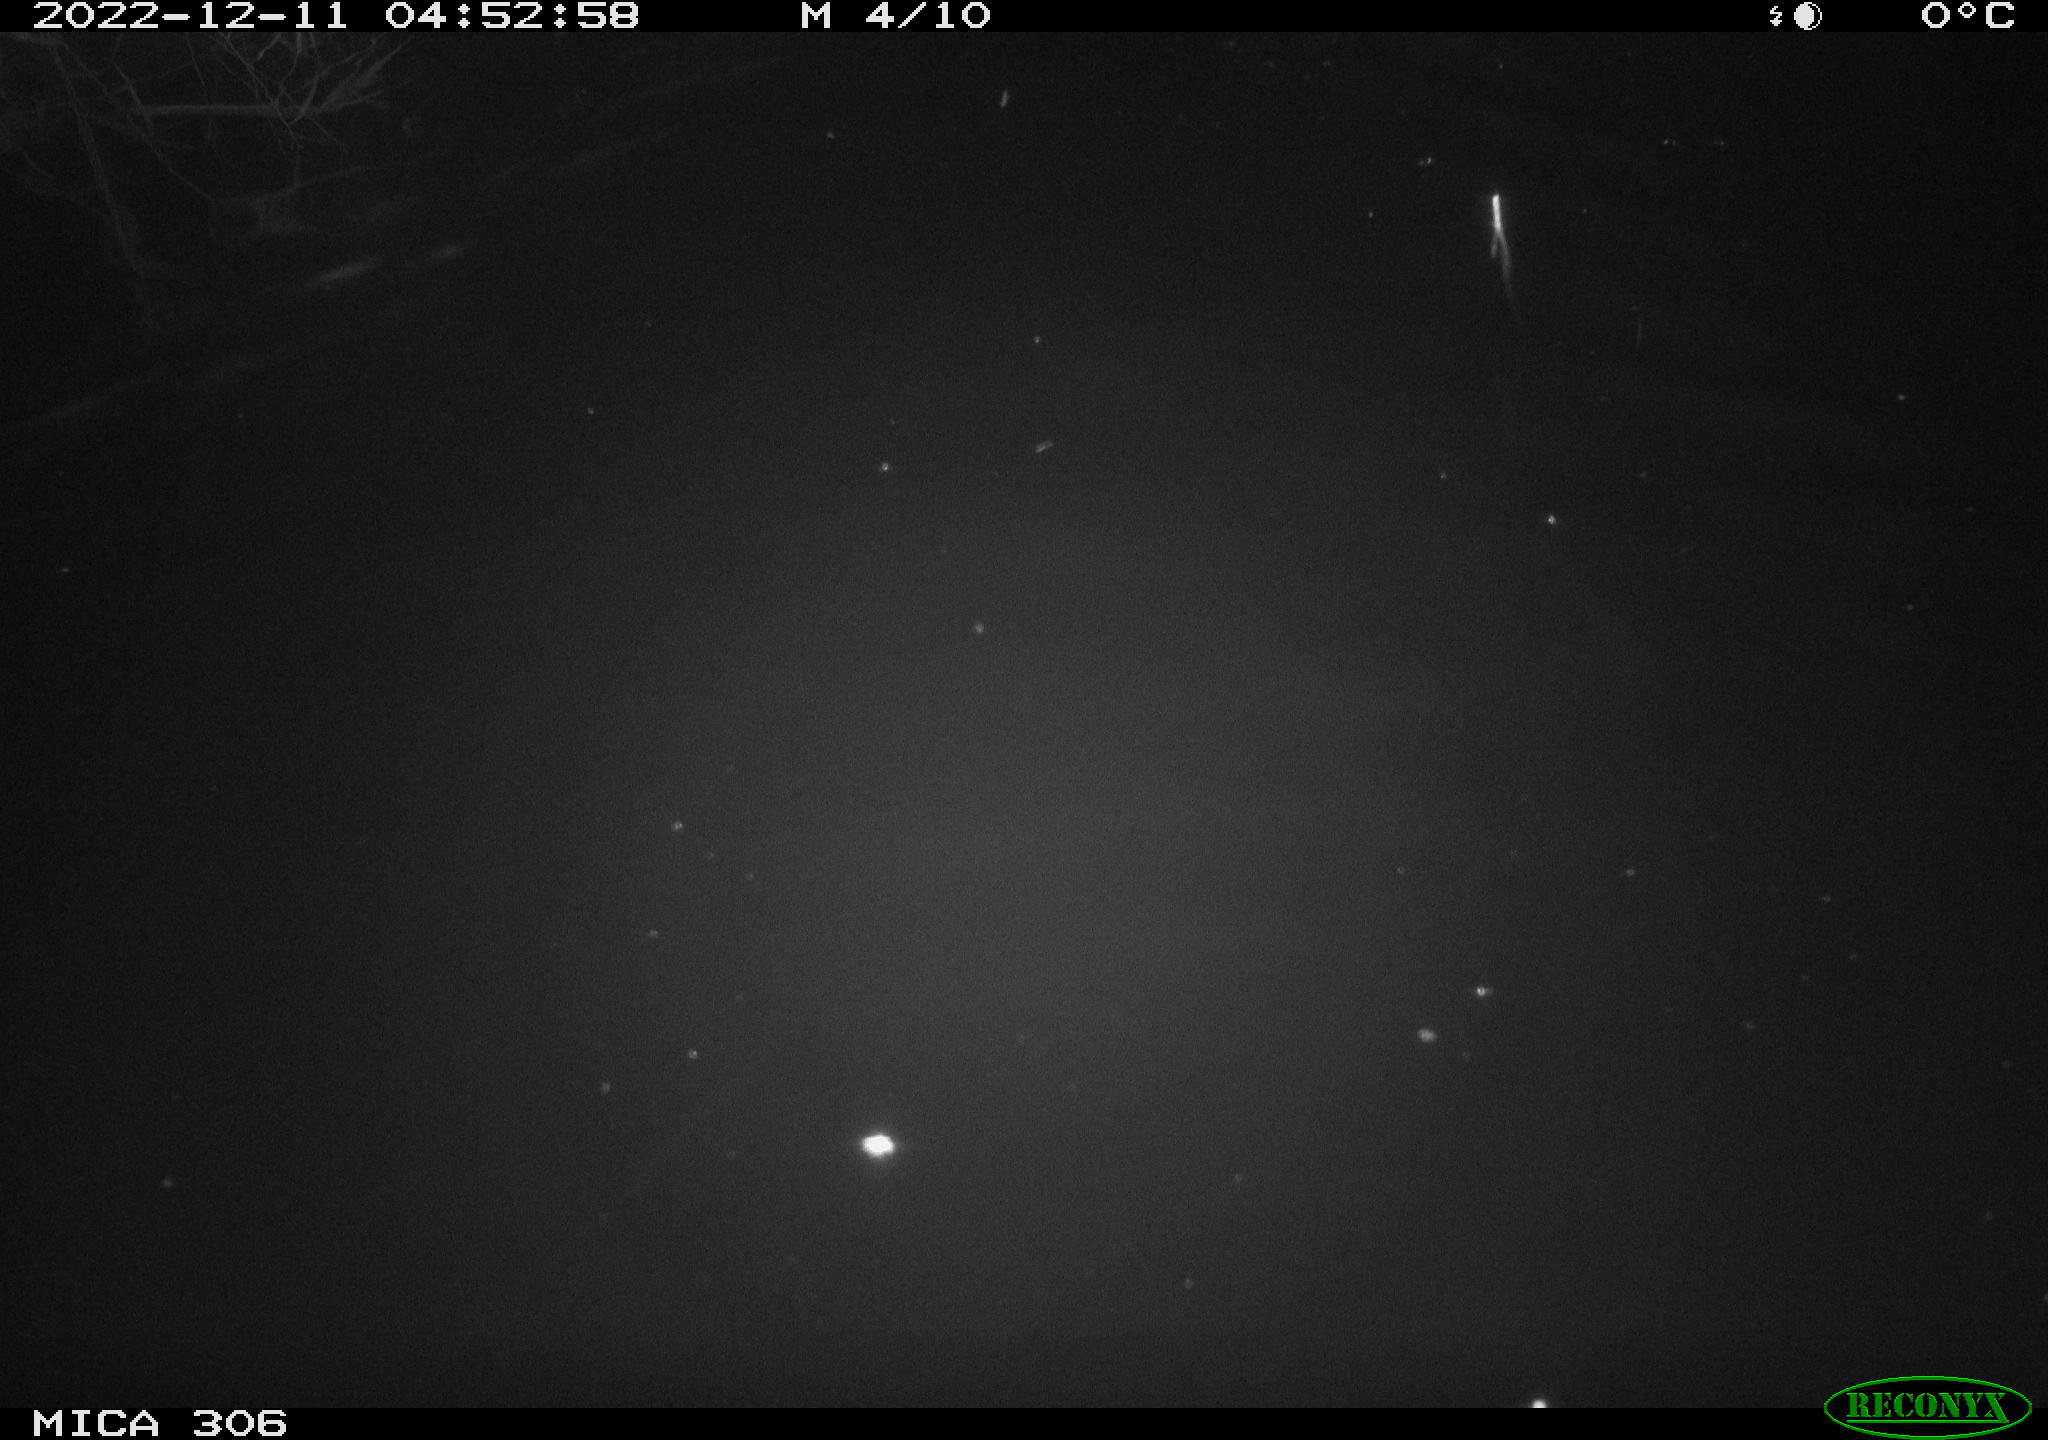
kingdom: Animalia
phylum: Chordata
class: Mammalia
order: Rodentia
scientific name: Rodentia
